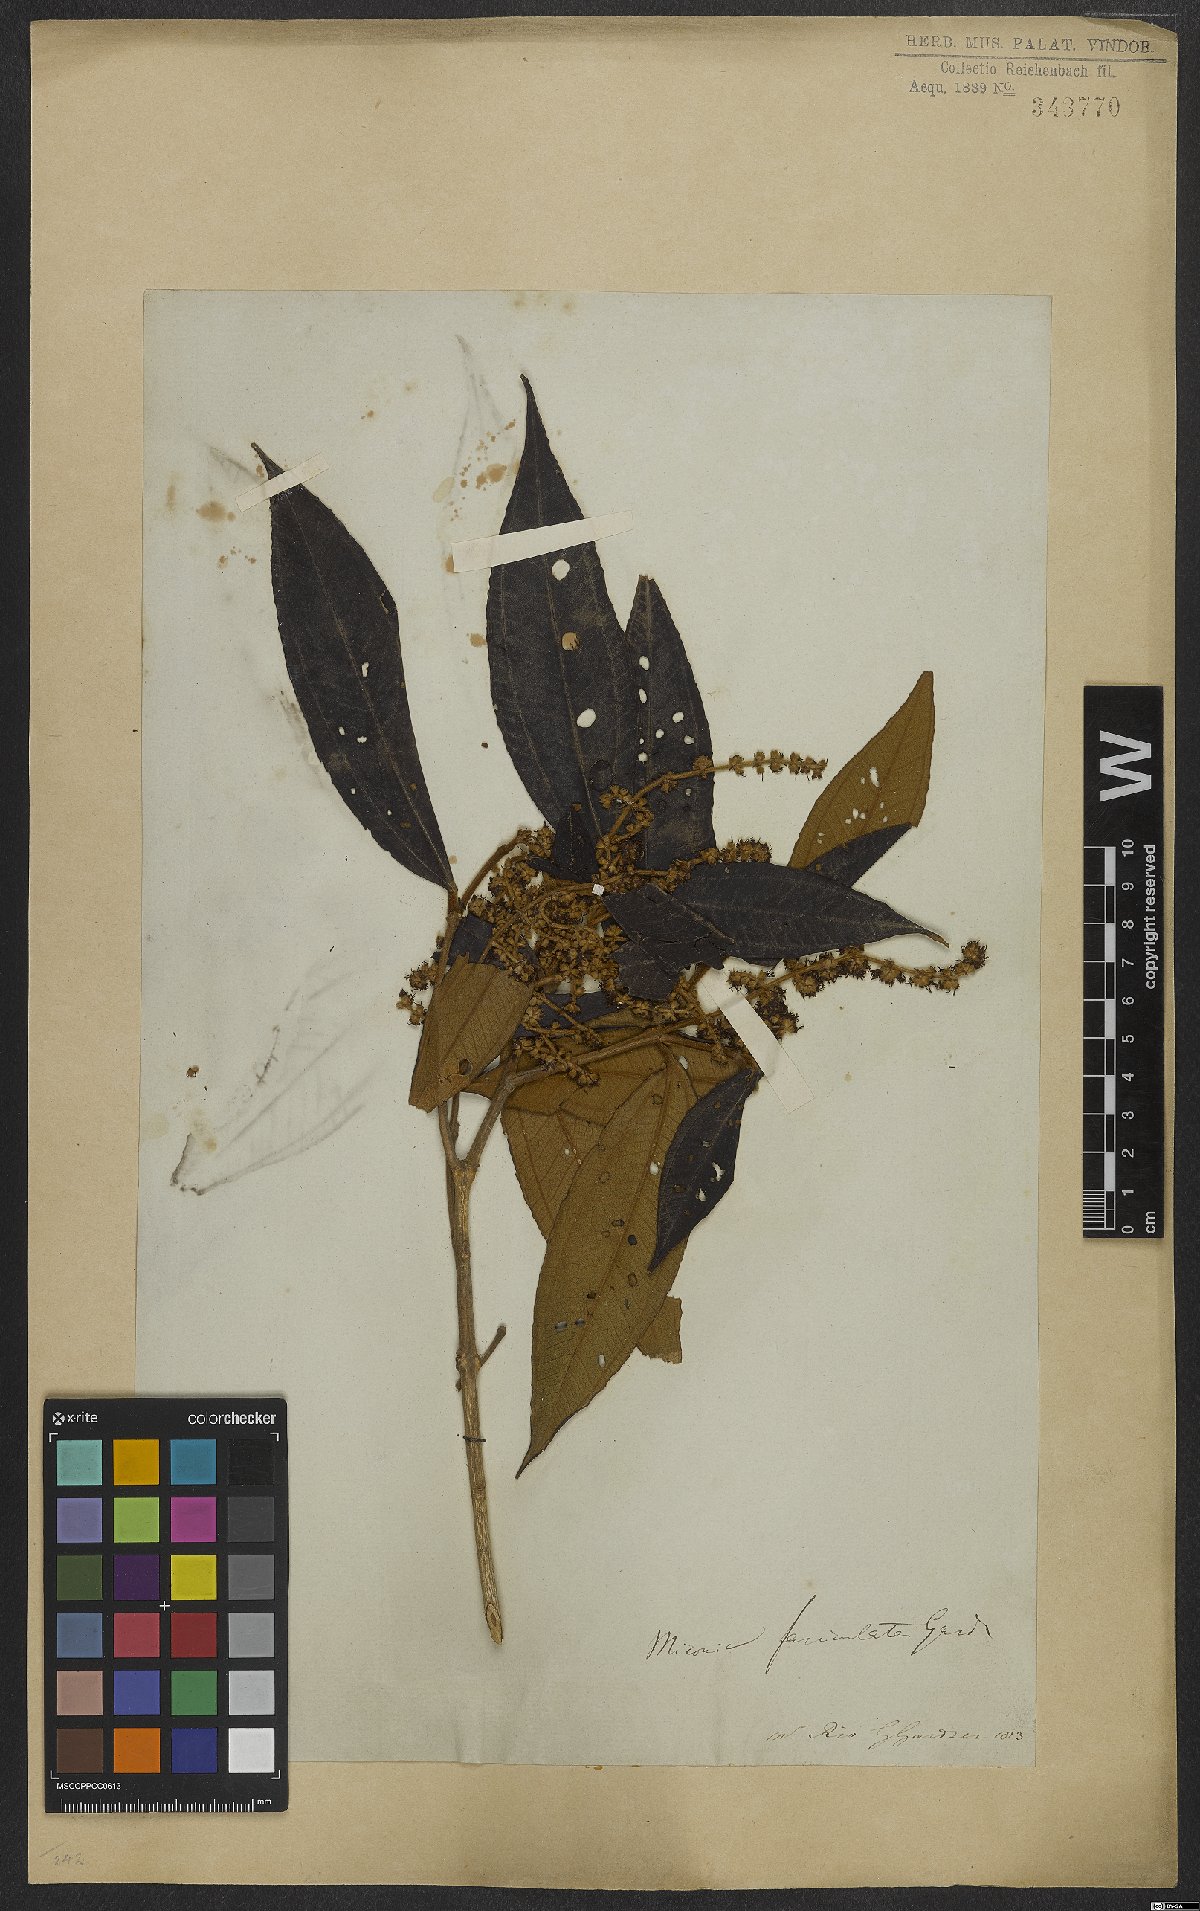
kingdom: Plantae
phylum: Tracheophyta
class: Magnoliopsida
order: Myrtales
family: Melastomataceae
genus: Miconia
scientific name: Miconia fasciculata
